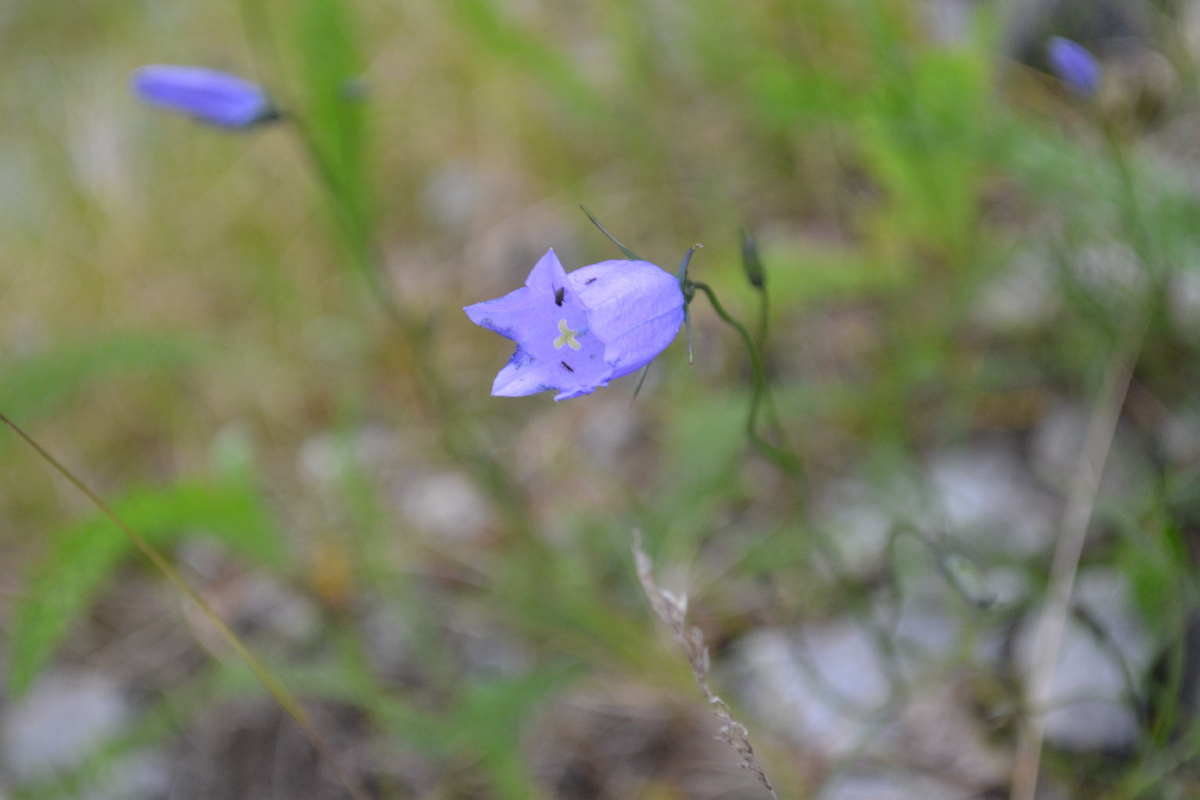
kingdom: Plantae
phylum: Tracheophyta
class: Magnoliopsida
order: Asterales
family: Campanulaceae
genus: Campanula
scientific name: Campanula rotundifolia
